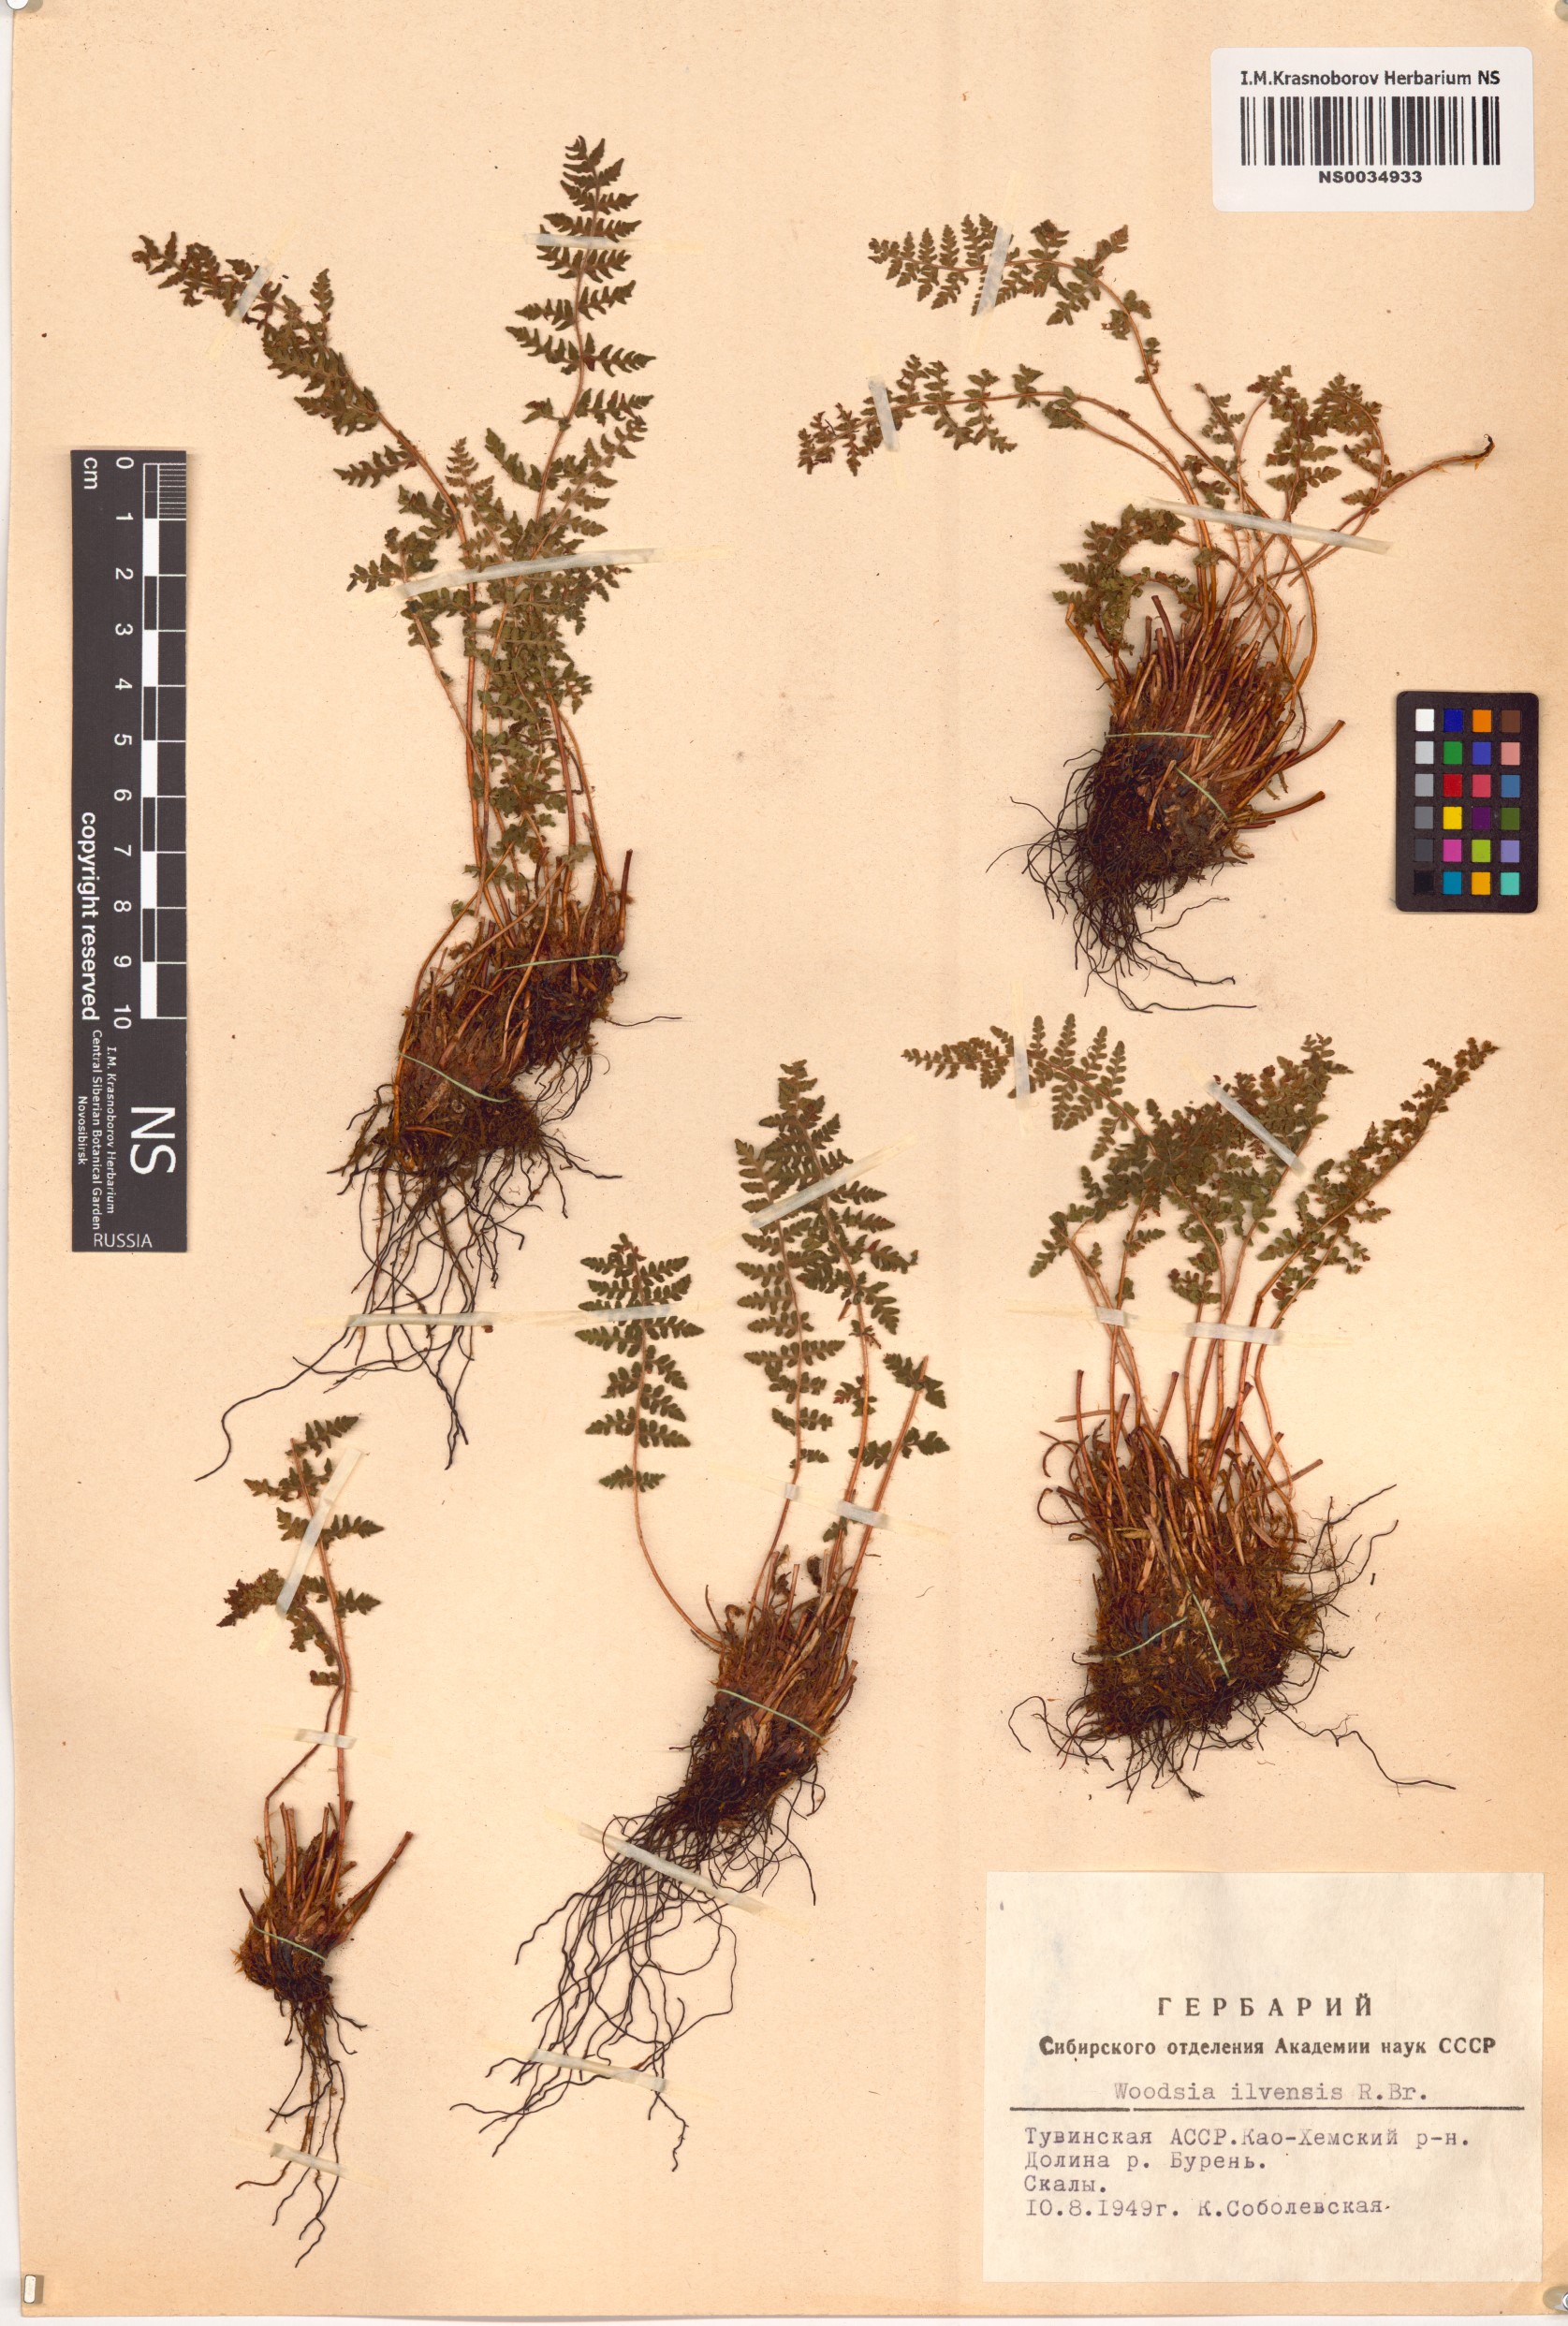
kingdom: Plantae
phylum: Tracheophyta
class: Polypodiopsida
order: Polypodiales
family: Woodsiaceae
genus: Woodsia
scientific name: Woodsia ilvensis
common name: Fragrant woodsia
